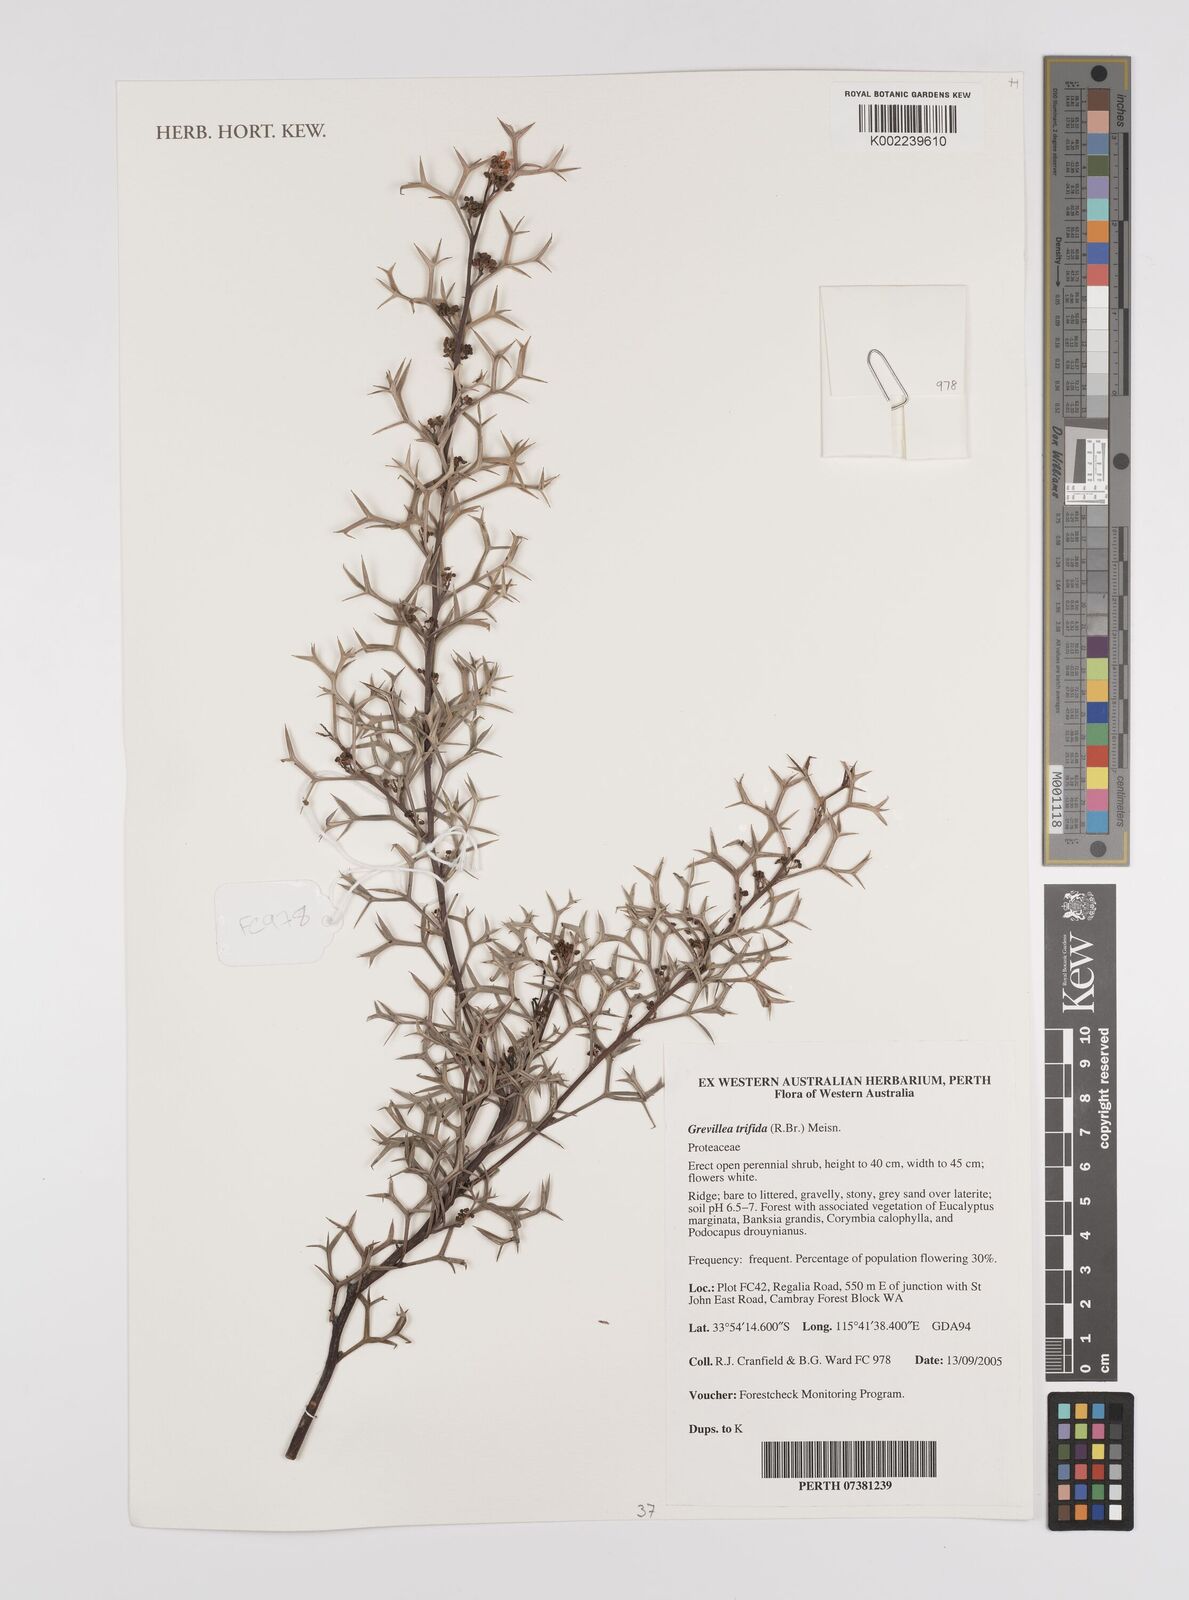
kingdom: Plantae
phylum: Tracheophyta
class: Magnoliopsida
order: Proteales
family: Proteaceae
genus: Grevillea
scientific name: Grevillea trifida
